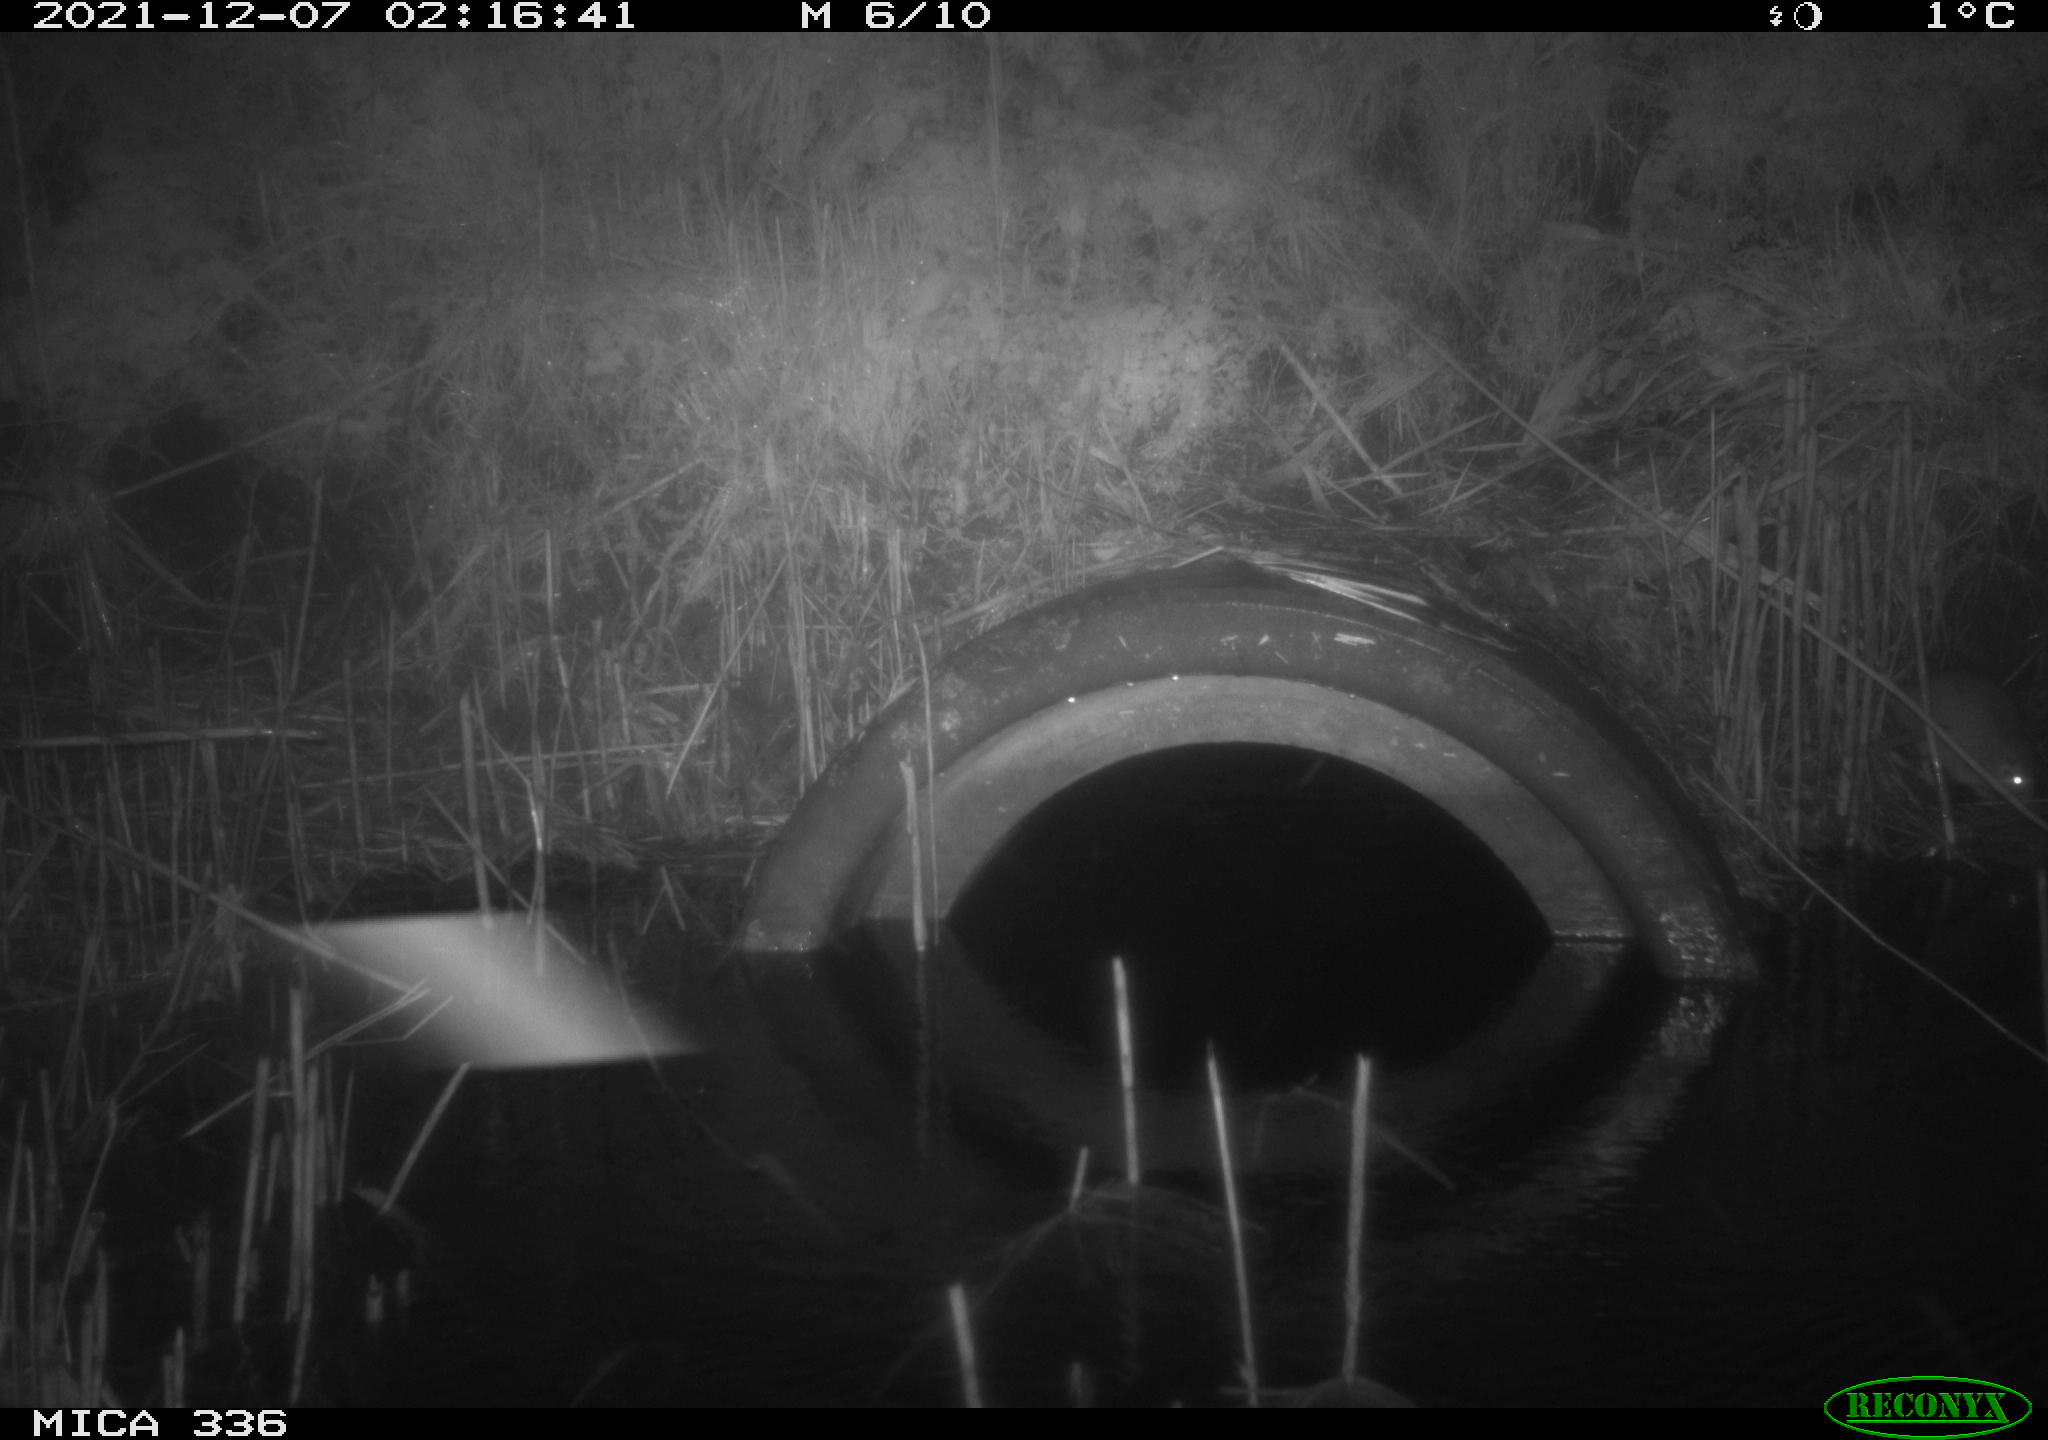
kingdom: Animalia
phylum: Chordata
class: Mammalia
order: Rodentia
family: Muridae
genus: Rattus
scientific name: Rattus norvegicus
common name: Brown rat
